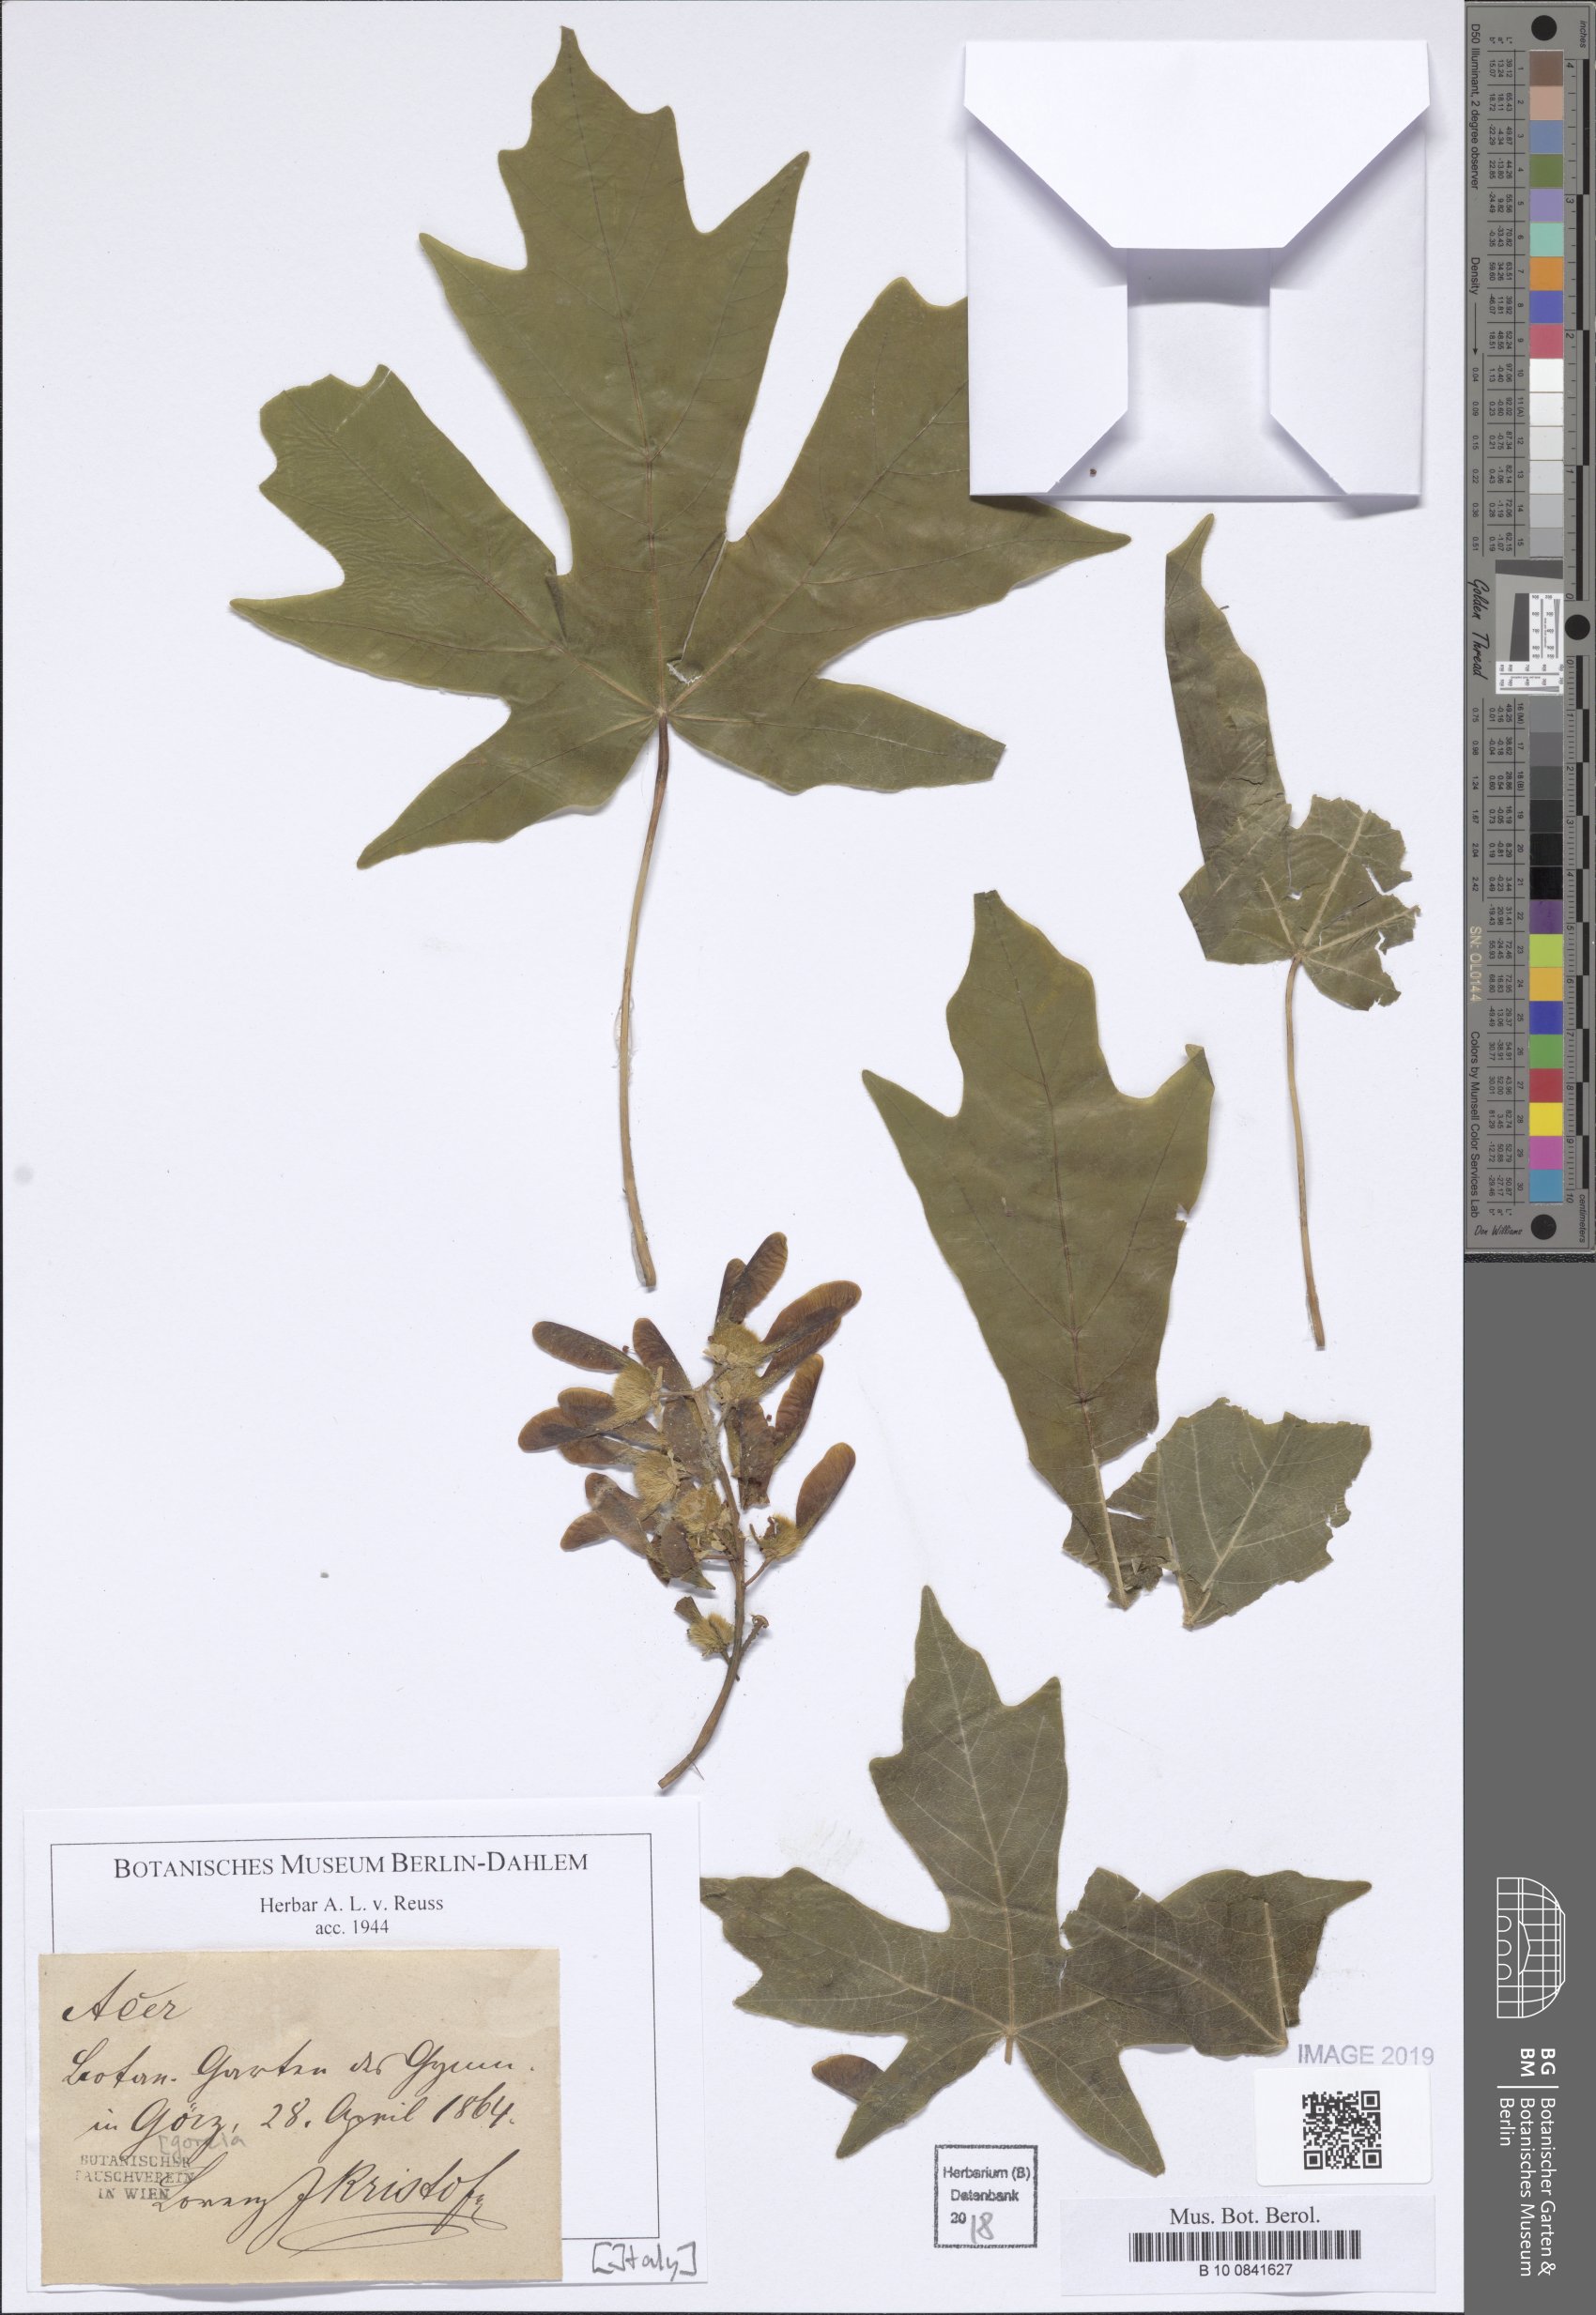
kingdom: Plantae
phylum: Tracheophyta
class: Magnoliopsida
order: Sapindales
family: Sapindaceae
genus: Acer
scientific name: Acer
